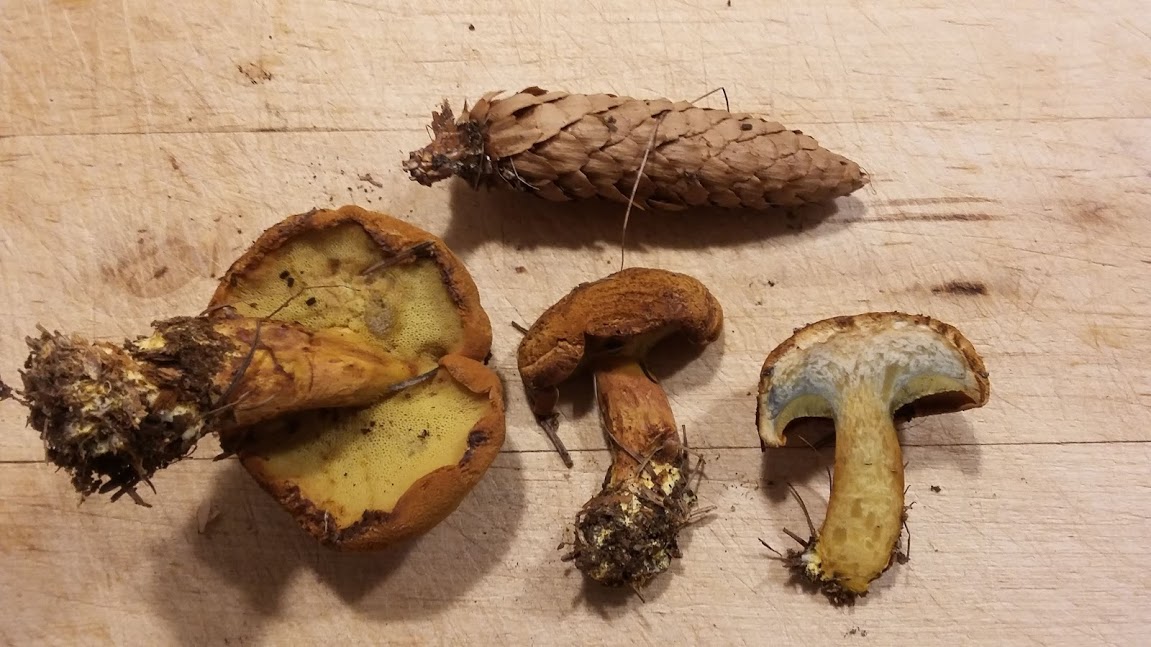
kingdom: Fungi
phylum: Basidiomycota
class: Agaricomycetes
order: Boletales
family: Boletaceae
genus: Buchwaldoboletus
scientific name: Buchwaldoboletus lignicola
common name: stødrørhat
